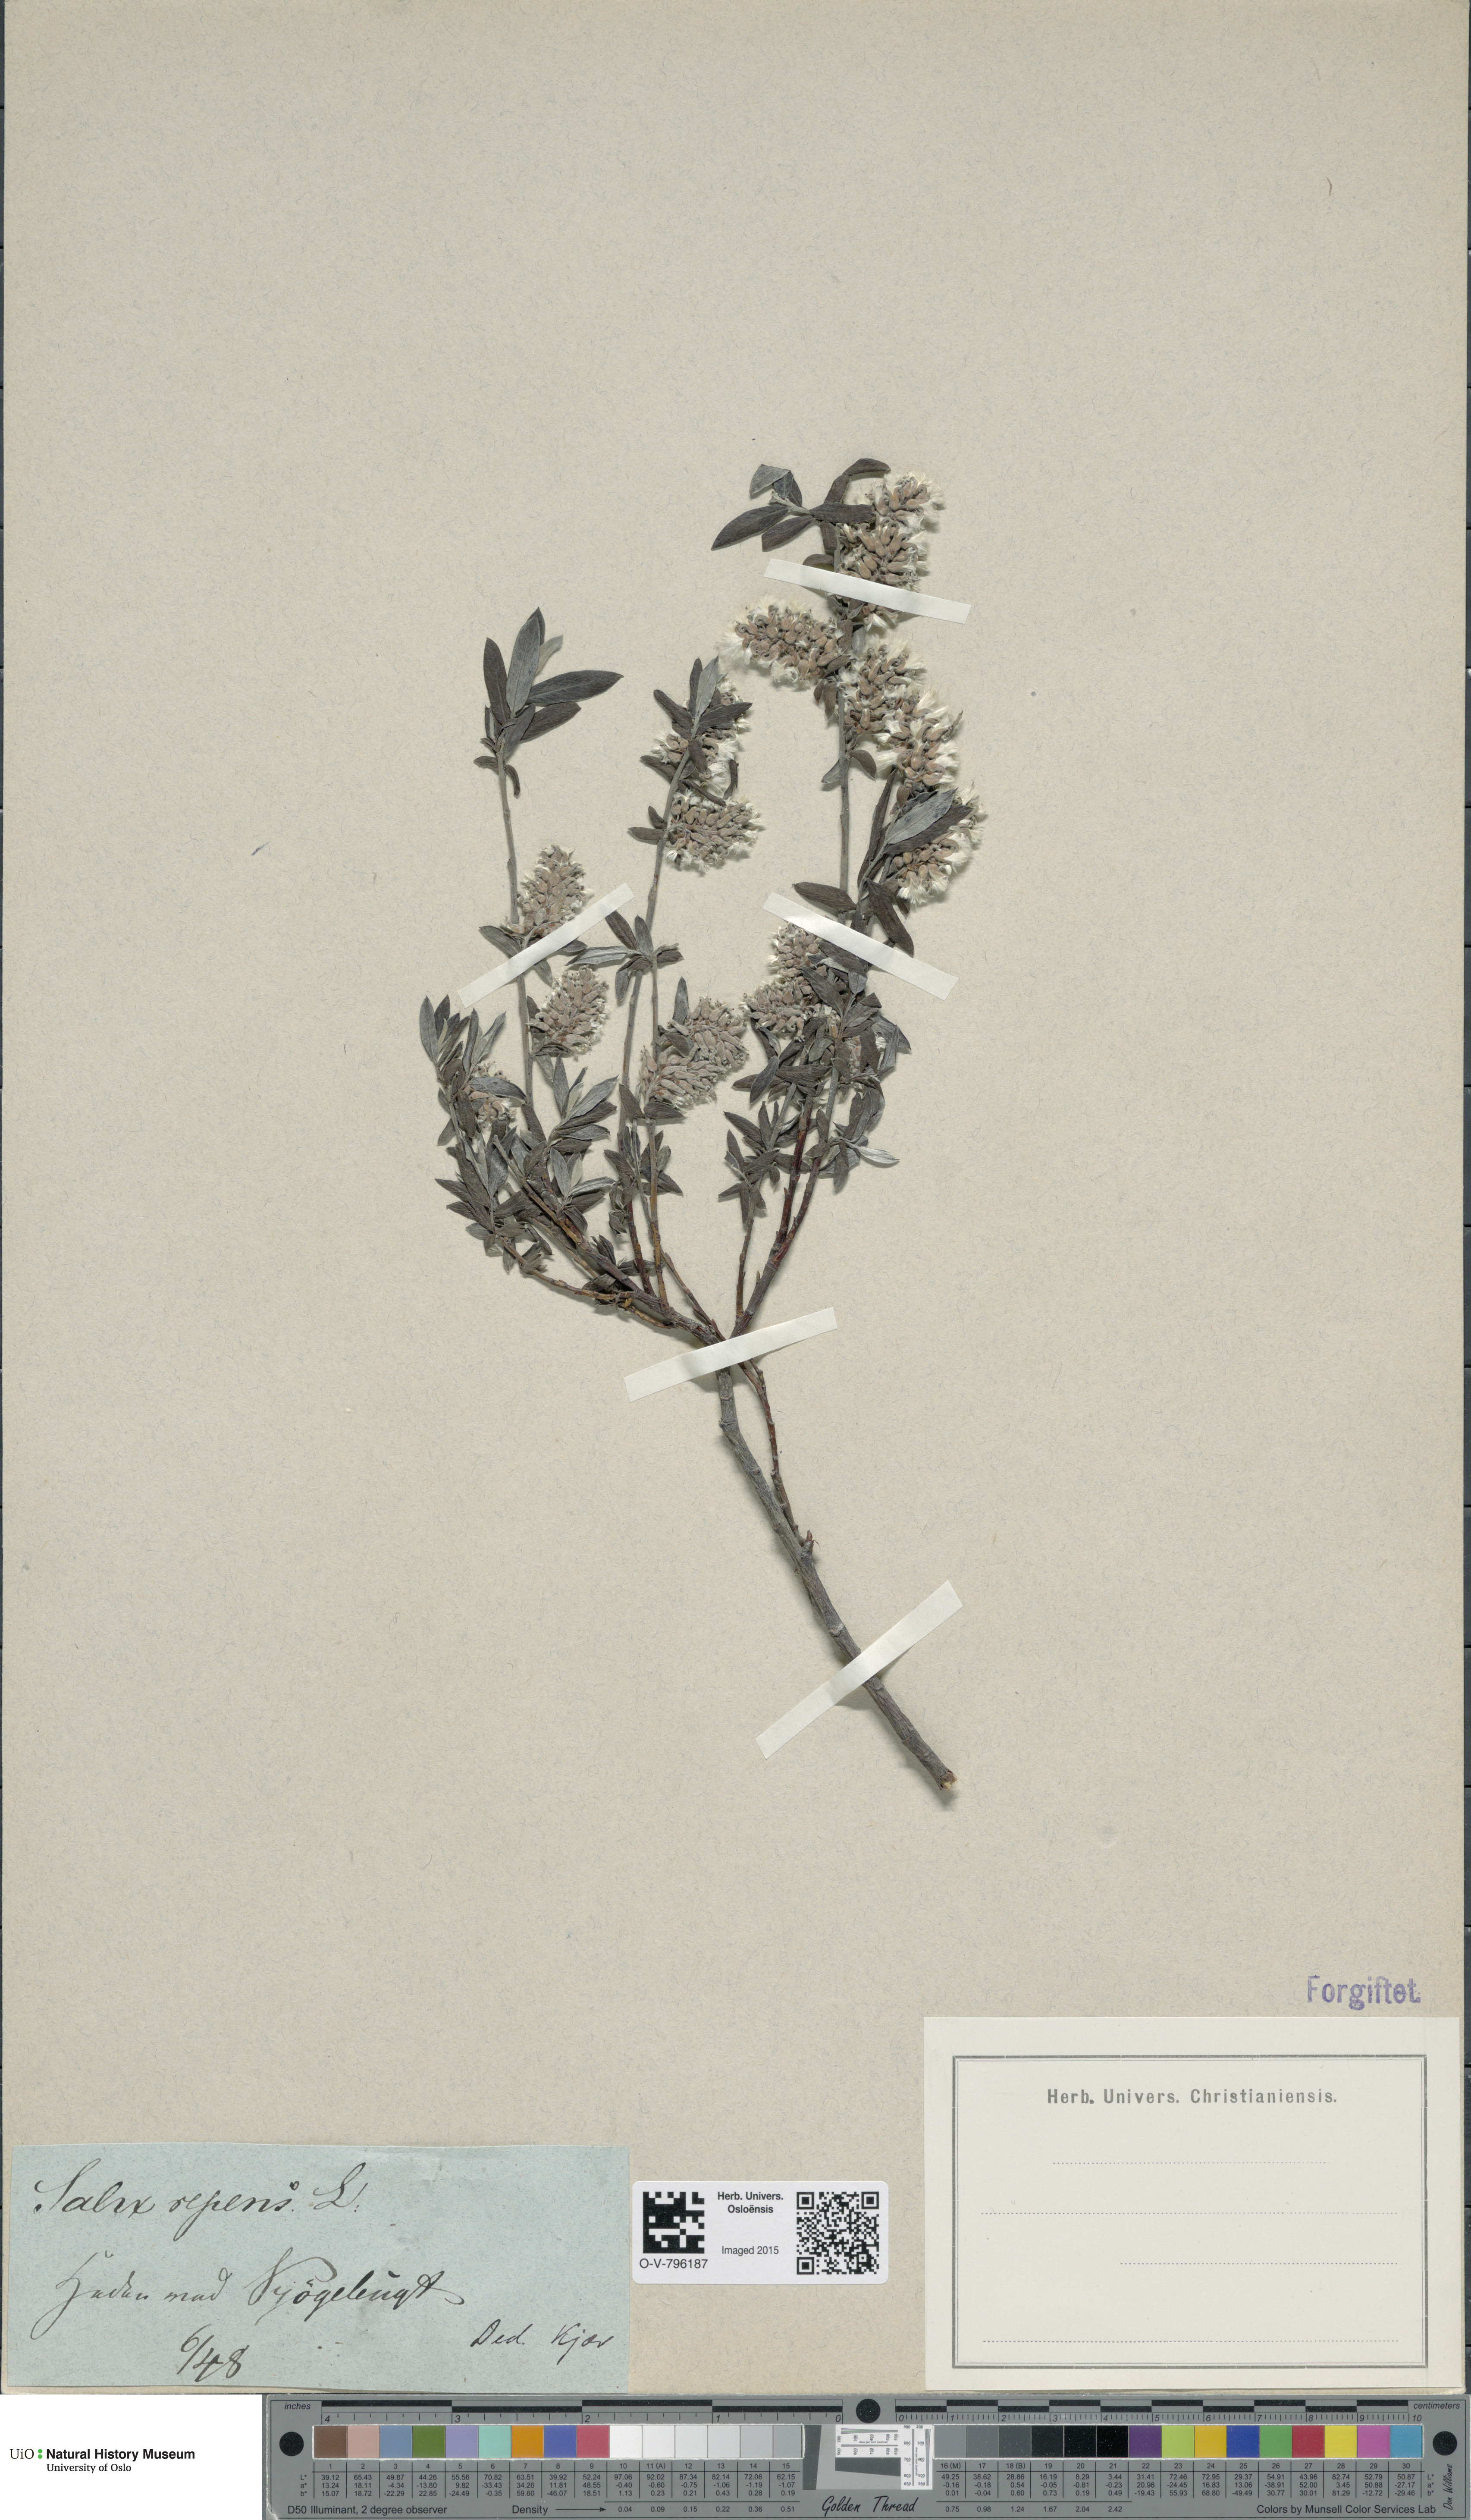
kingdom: Plantae
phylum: Tracheophyta
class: Magnoliopsida
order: Malpighiales
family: Salicaceae
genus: Salix
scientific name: Salix repens
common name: Creeping willow
